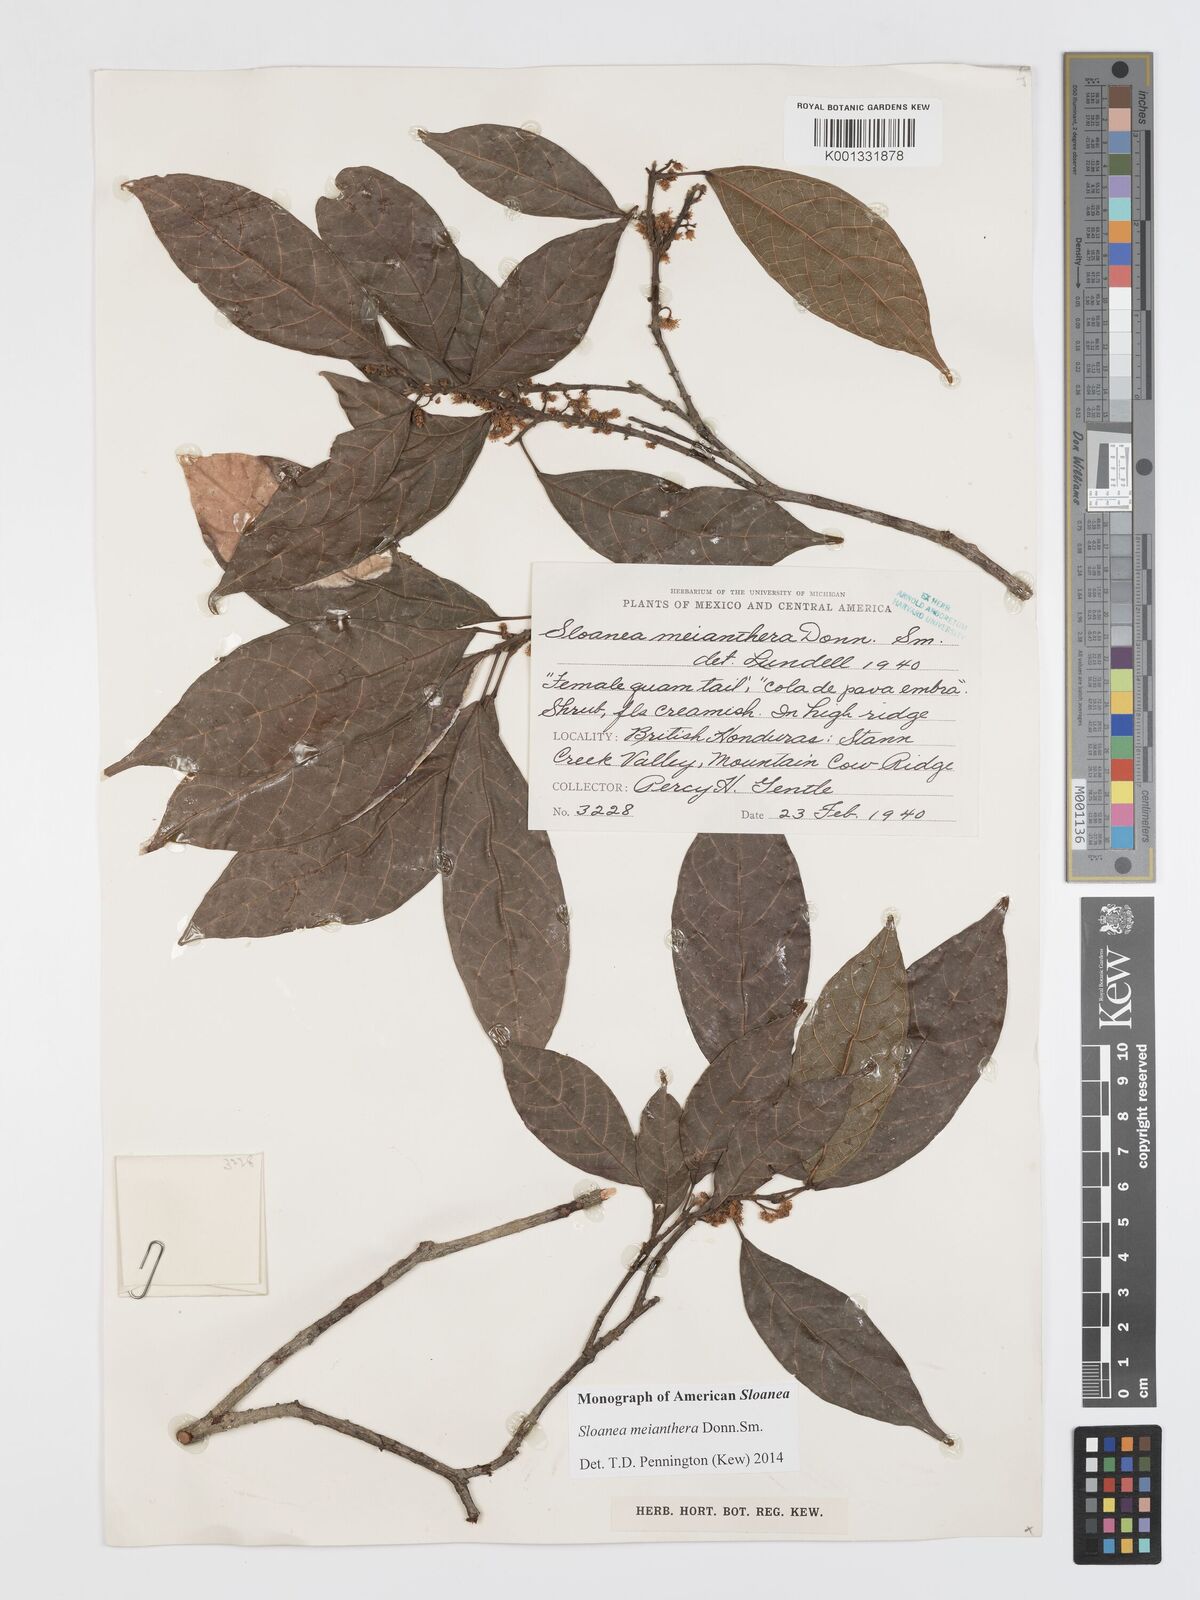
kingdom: Plantae
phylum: Tracheophyta
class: Magnoliopsida
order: Oxalidales
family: Elaeocarpaceae
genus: Sloanea
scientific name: Sloanea meianthera
